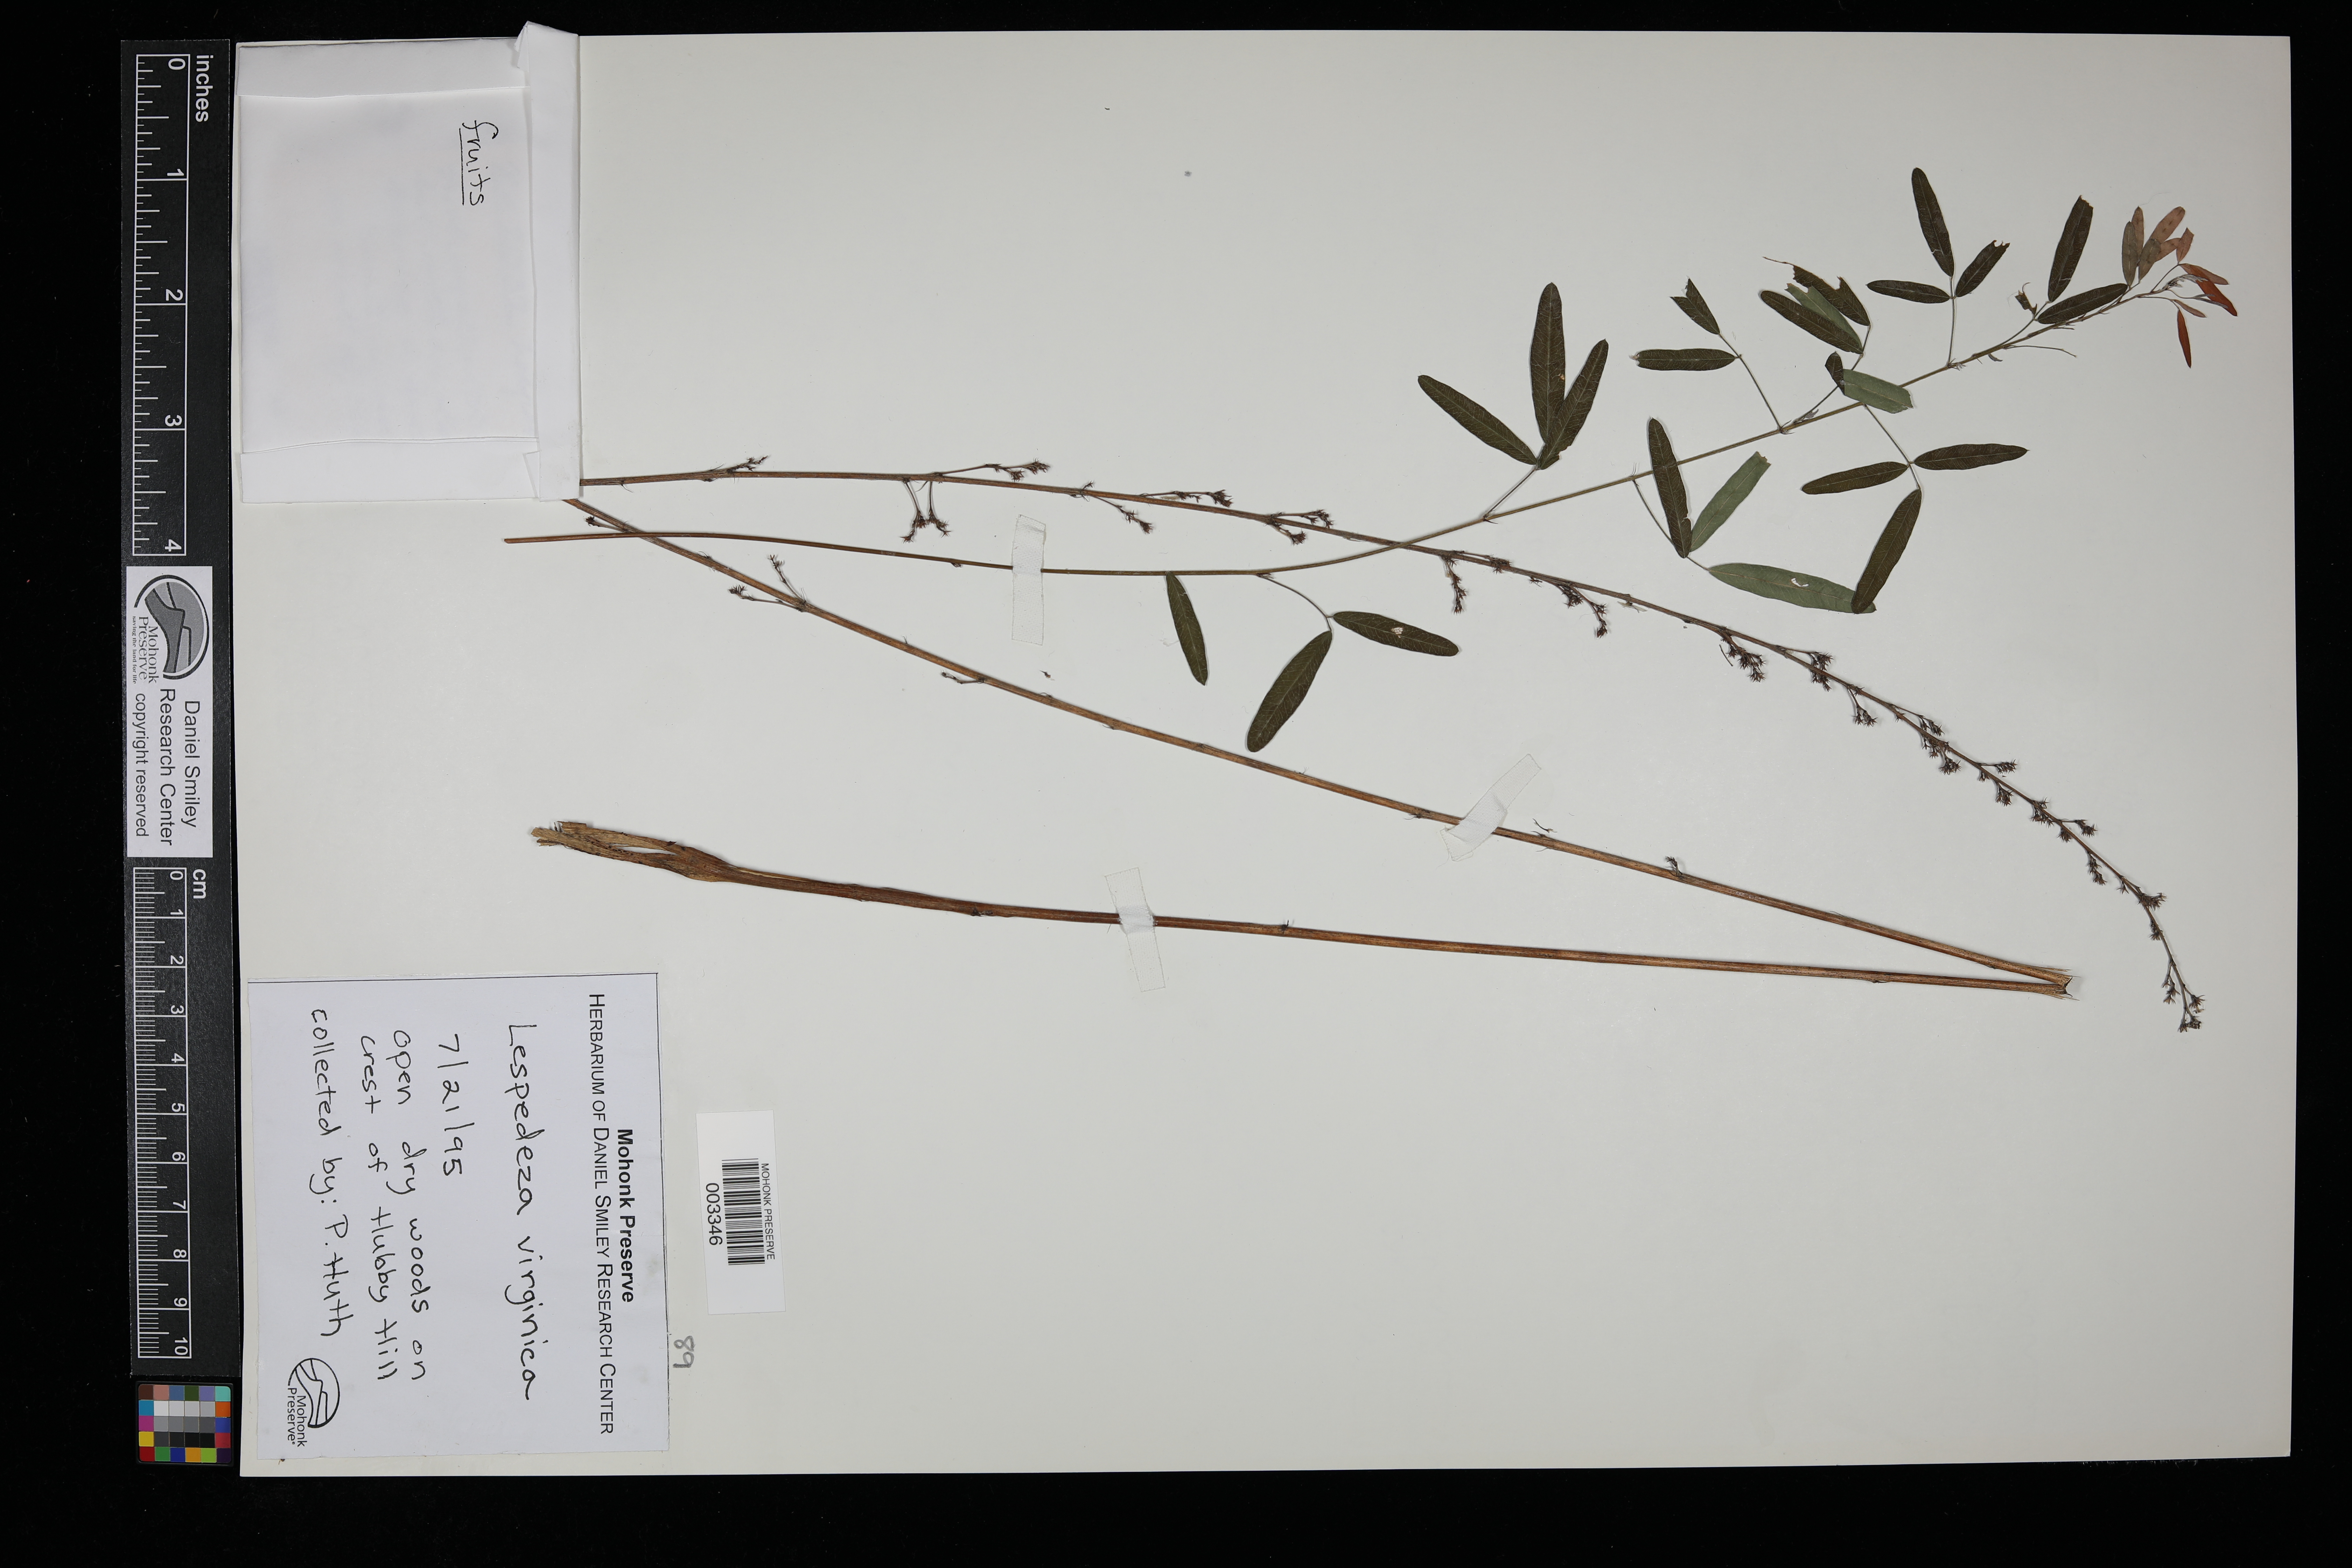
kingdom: Plantae
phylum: Tracheophyta
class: Magnoliopsida
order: Fabales
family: Fabaceae
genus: Lespedeza
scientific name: Lespedeza virginica
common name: Slender bush-clover
